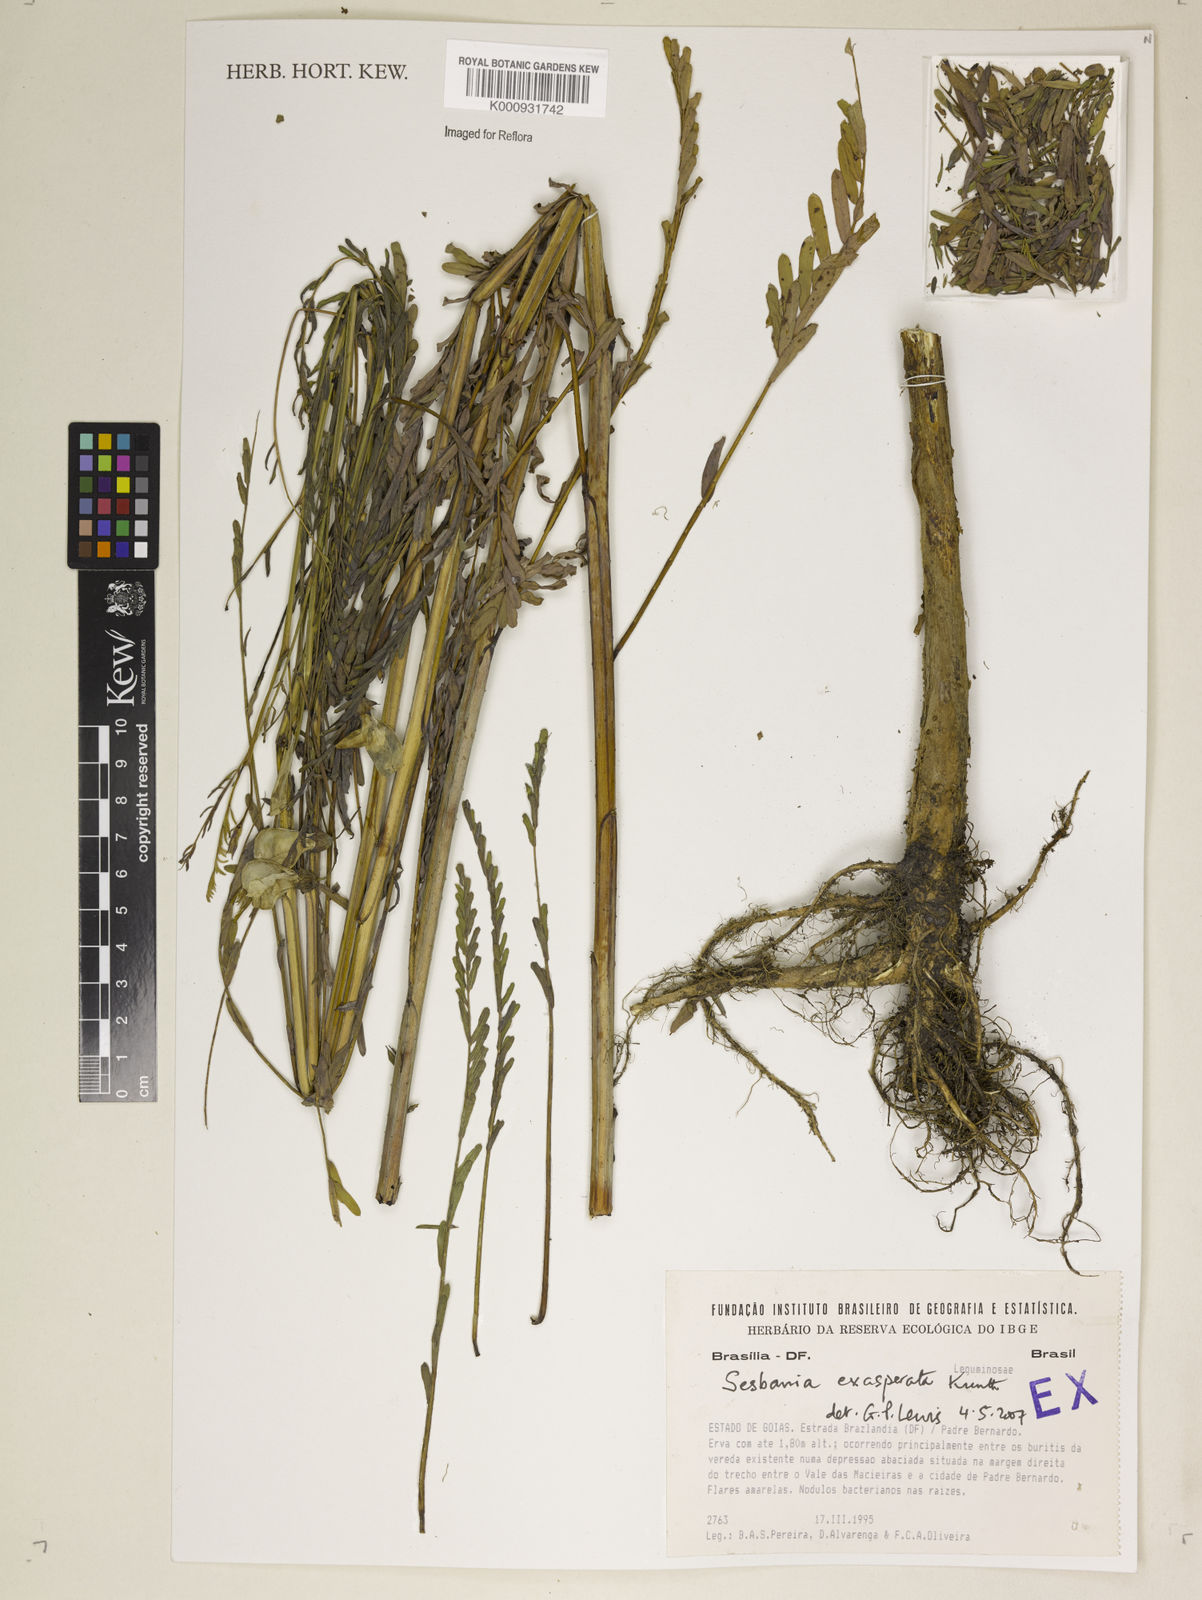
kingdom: Plantae
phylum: Tracheophyta
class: Magnoliopsida
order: Fabales
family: Fabaceae
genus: Sesbania
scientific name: Sesbania exasperata
